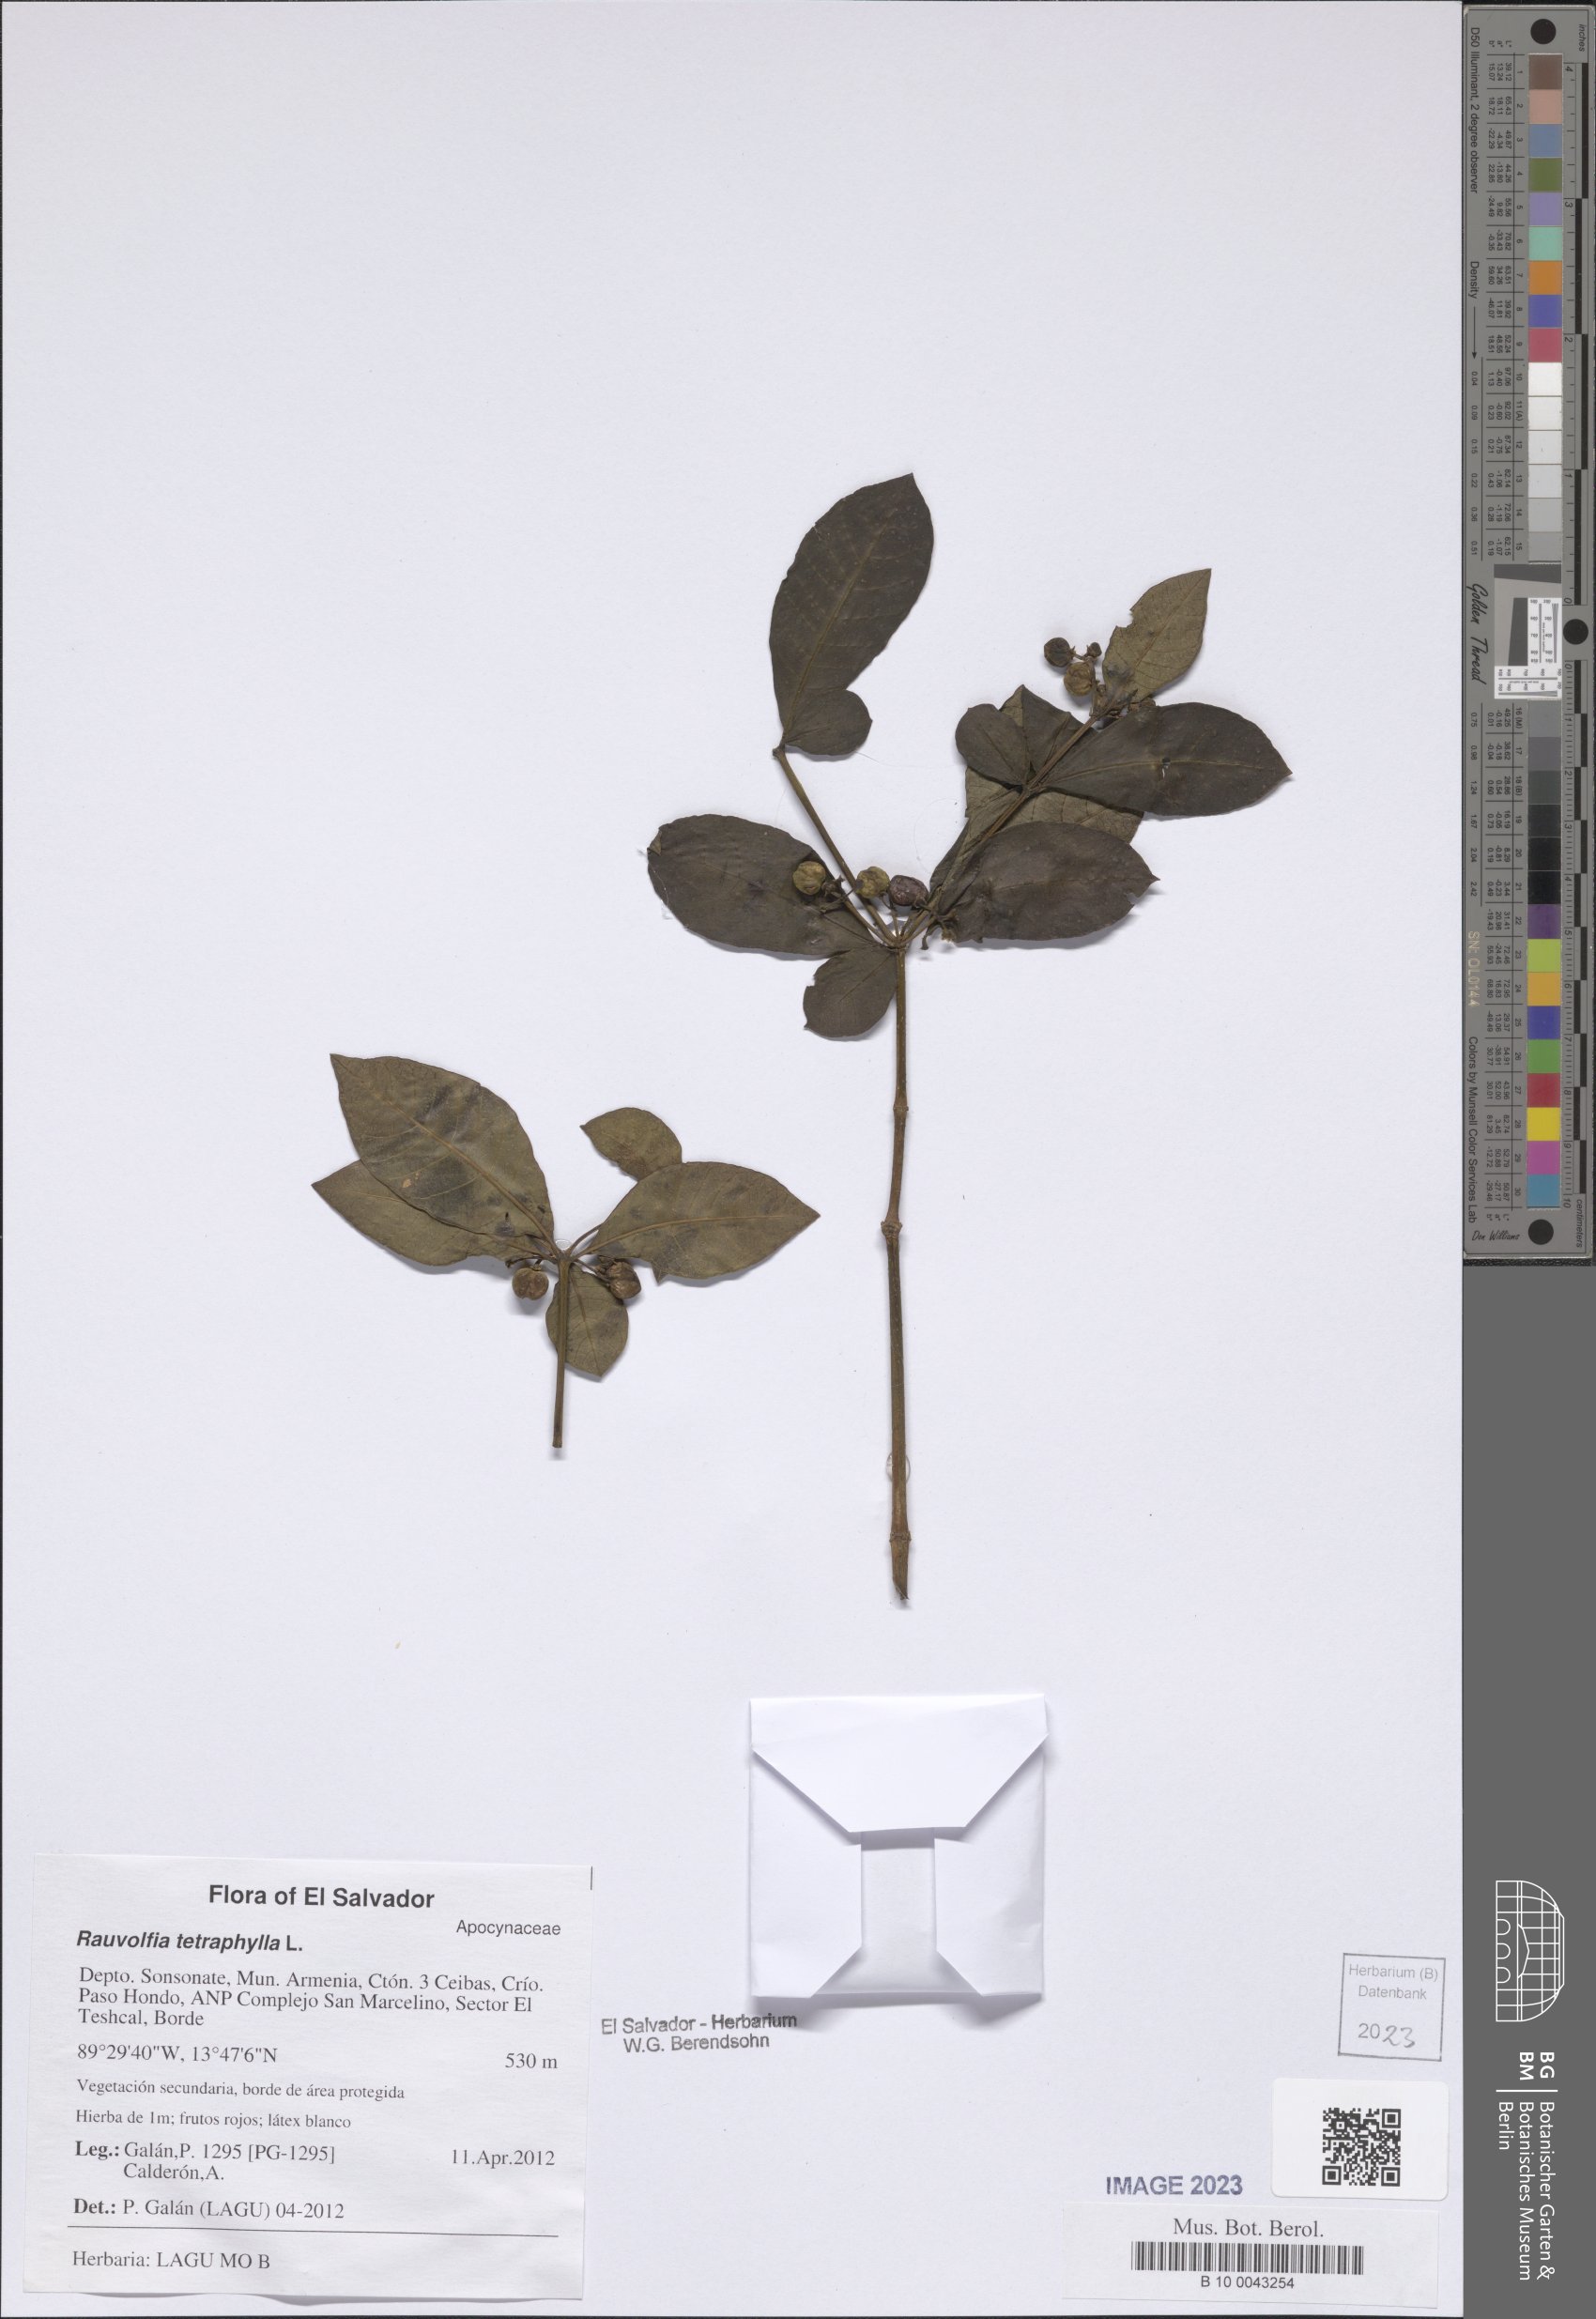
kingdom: Plantae
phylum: Tracheophyta
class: Magnoliopsida
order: Gentianales
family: Apocynaceae
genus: Rauvolfia
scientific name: Rauvolfia tetraphylla
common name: Four-leaf devil-pepper
